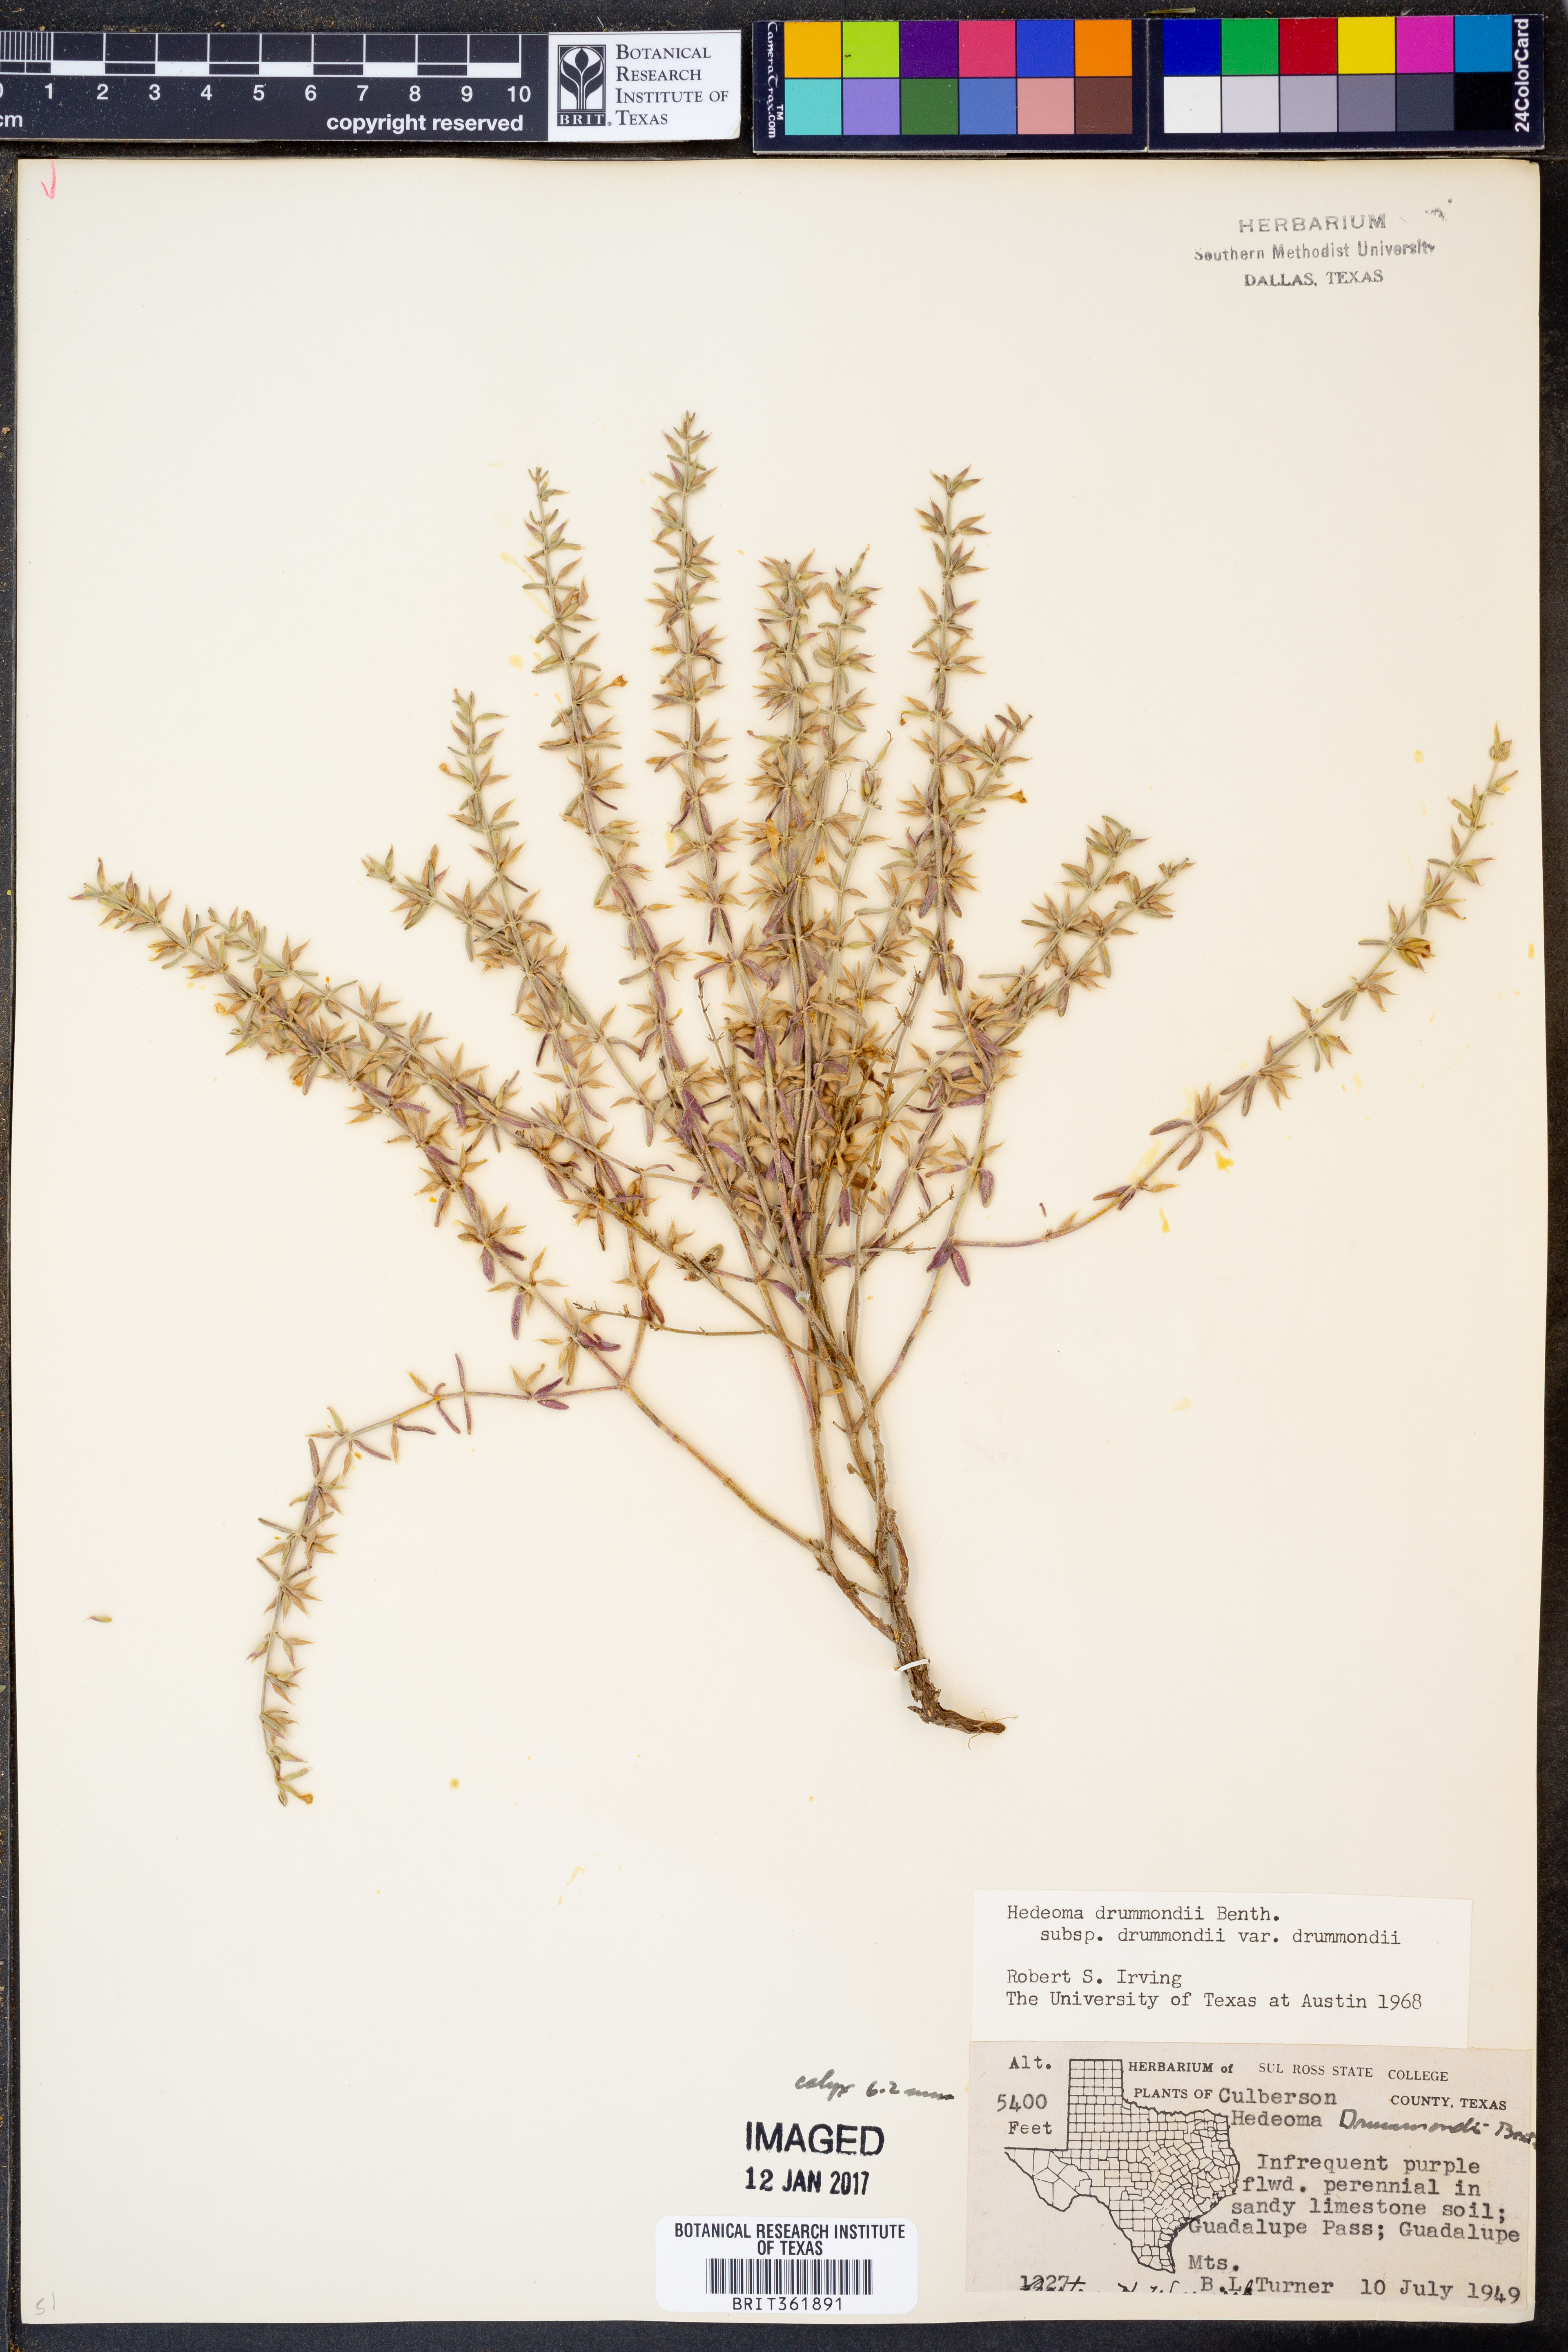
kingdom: Plantae
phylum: Tracheophyta
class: Magnoliopsida
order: Lamiales
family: Lamiaceae
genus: Hedeoma
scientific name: Hedeoma drummondii
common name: New mexico pennyroyal
